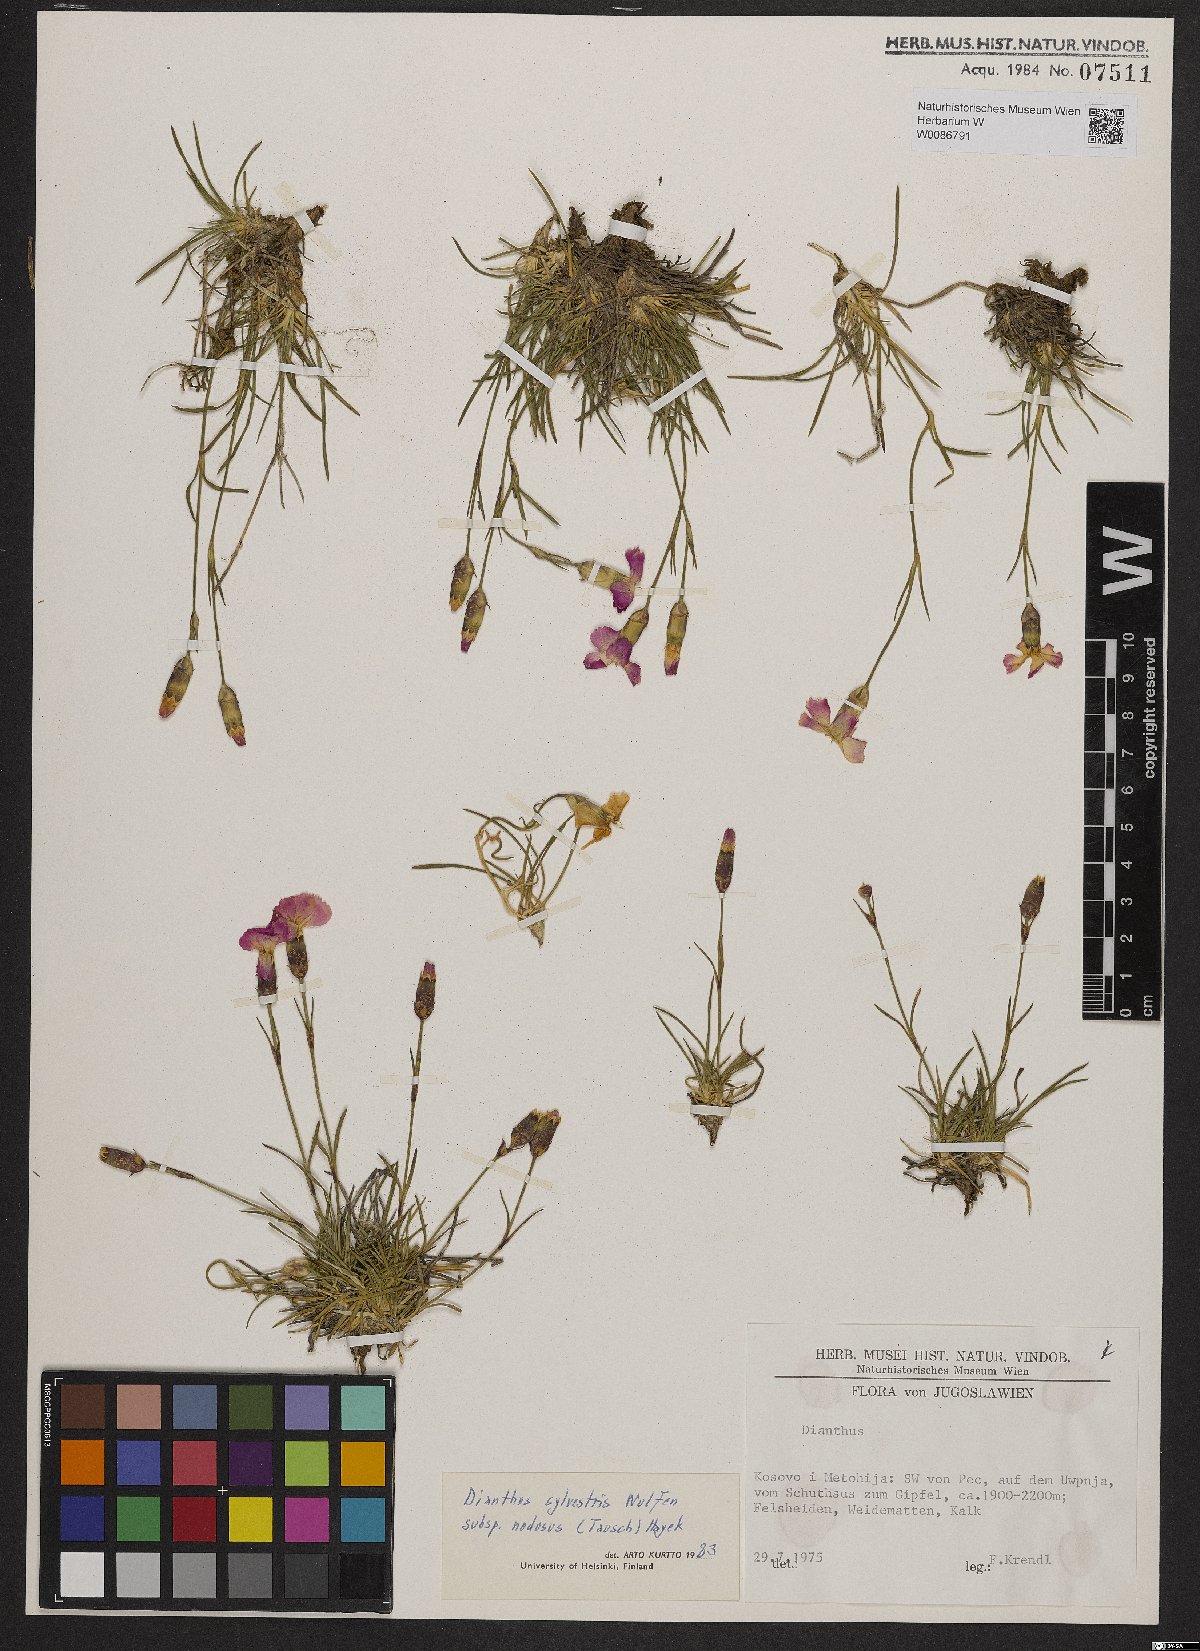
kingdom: Plantae
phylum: Tracheophyta
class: Magnoliopsida
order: Caryophyllales
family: Caryophyllaceae
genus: Dianthus
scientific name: Dianthus sylvestris
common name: Wood pink
